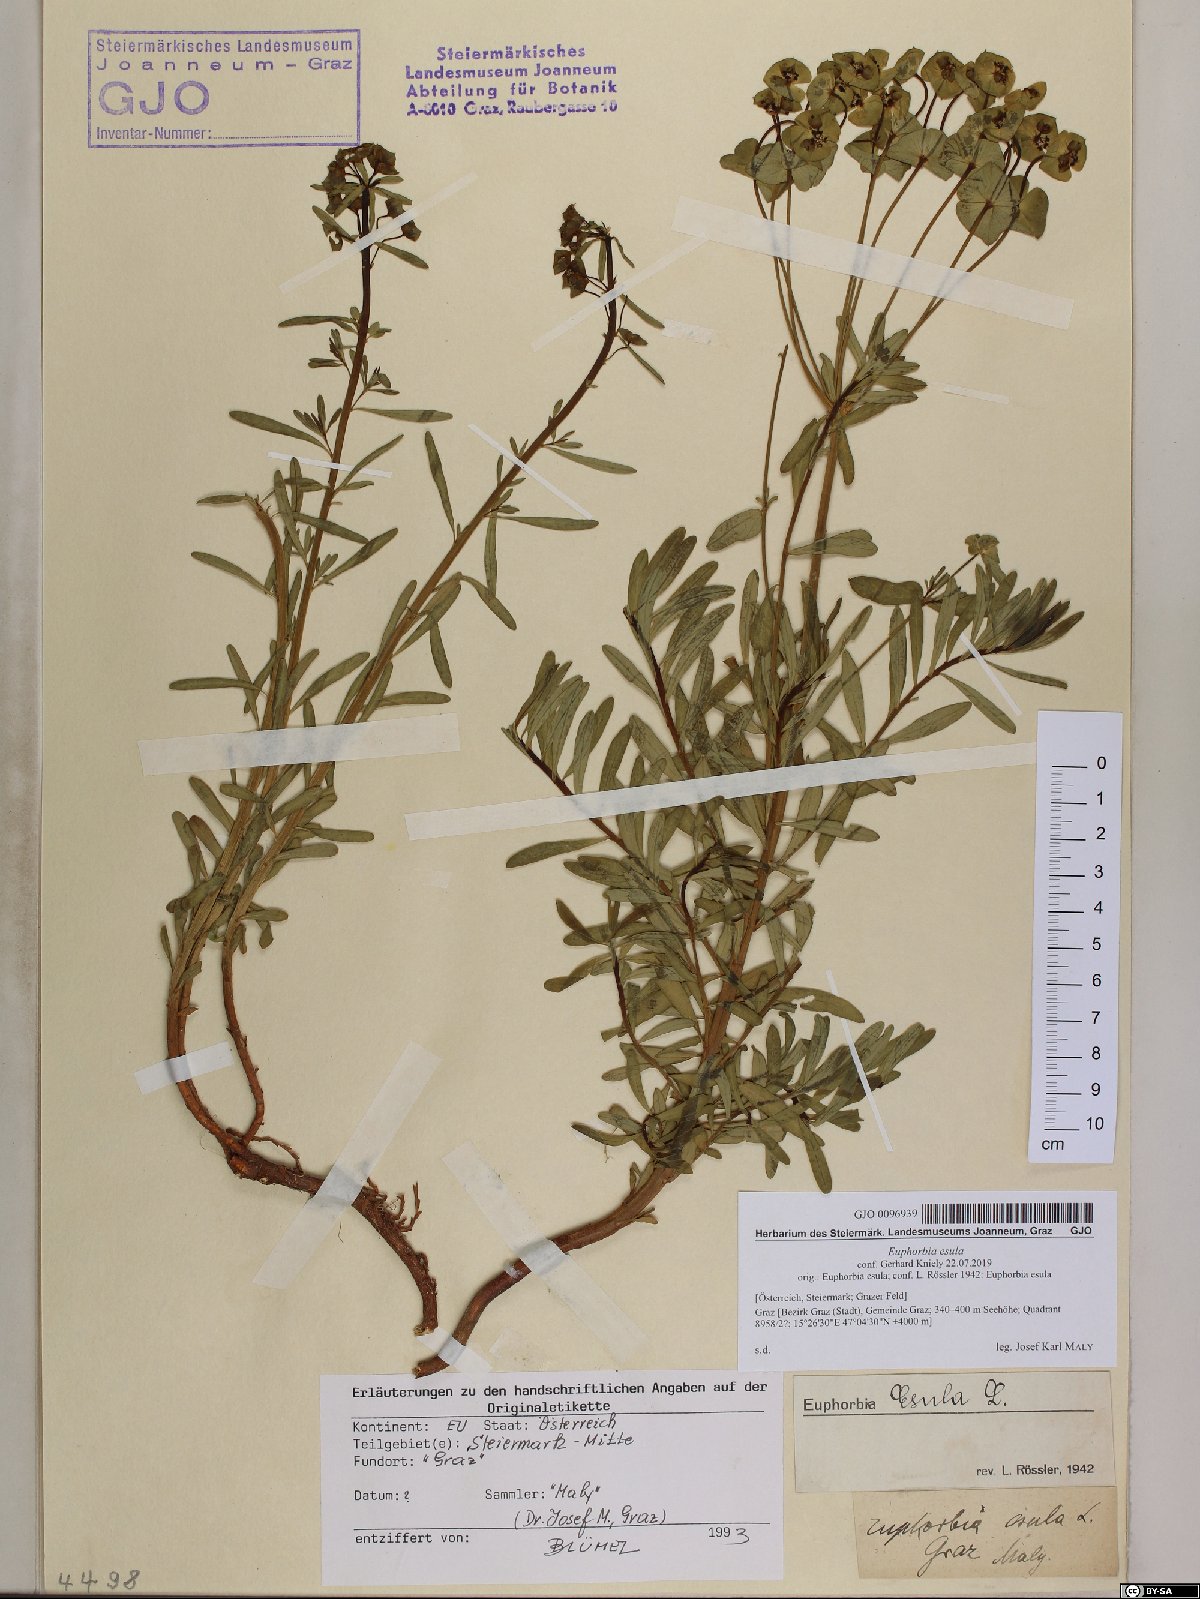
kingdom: Plantae
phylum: Tracheophyta
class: Magnoliopsida
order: Malpighiales
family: Euphorbiaceae
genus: Euphorbia
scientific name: Euphorbia esula
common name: Leafy spurge
